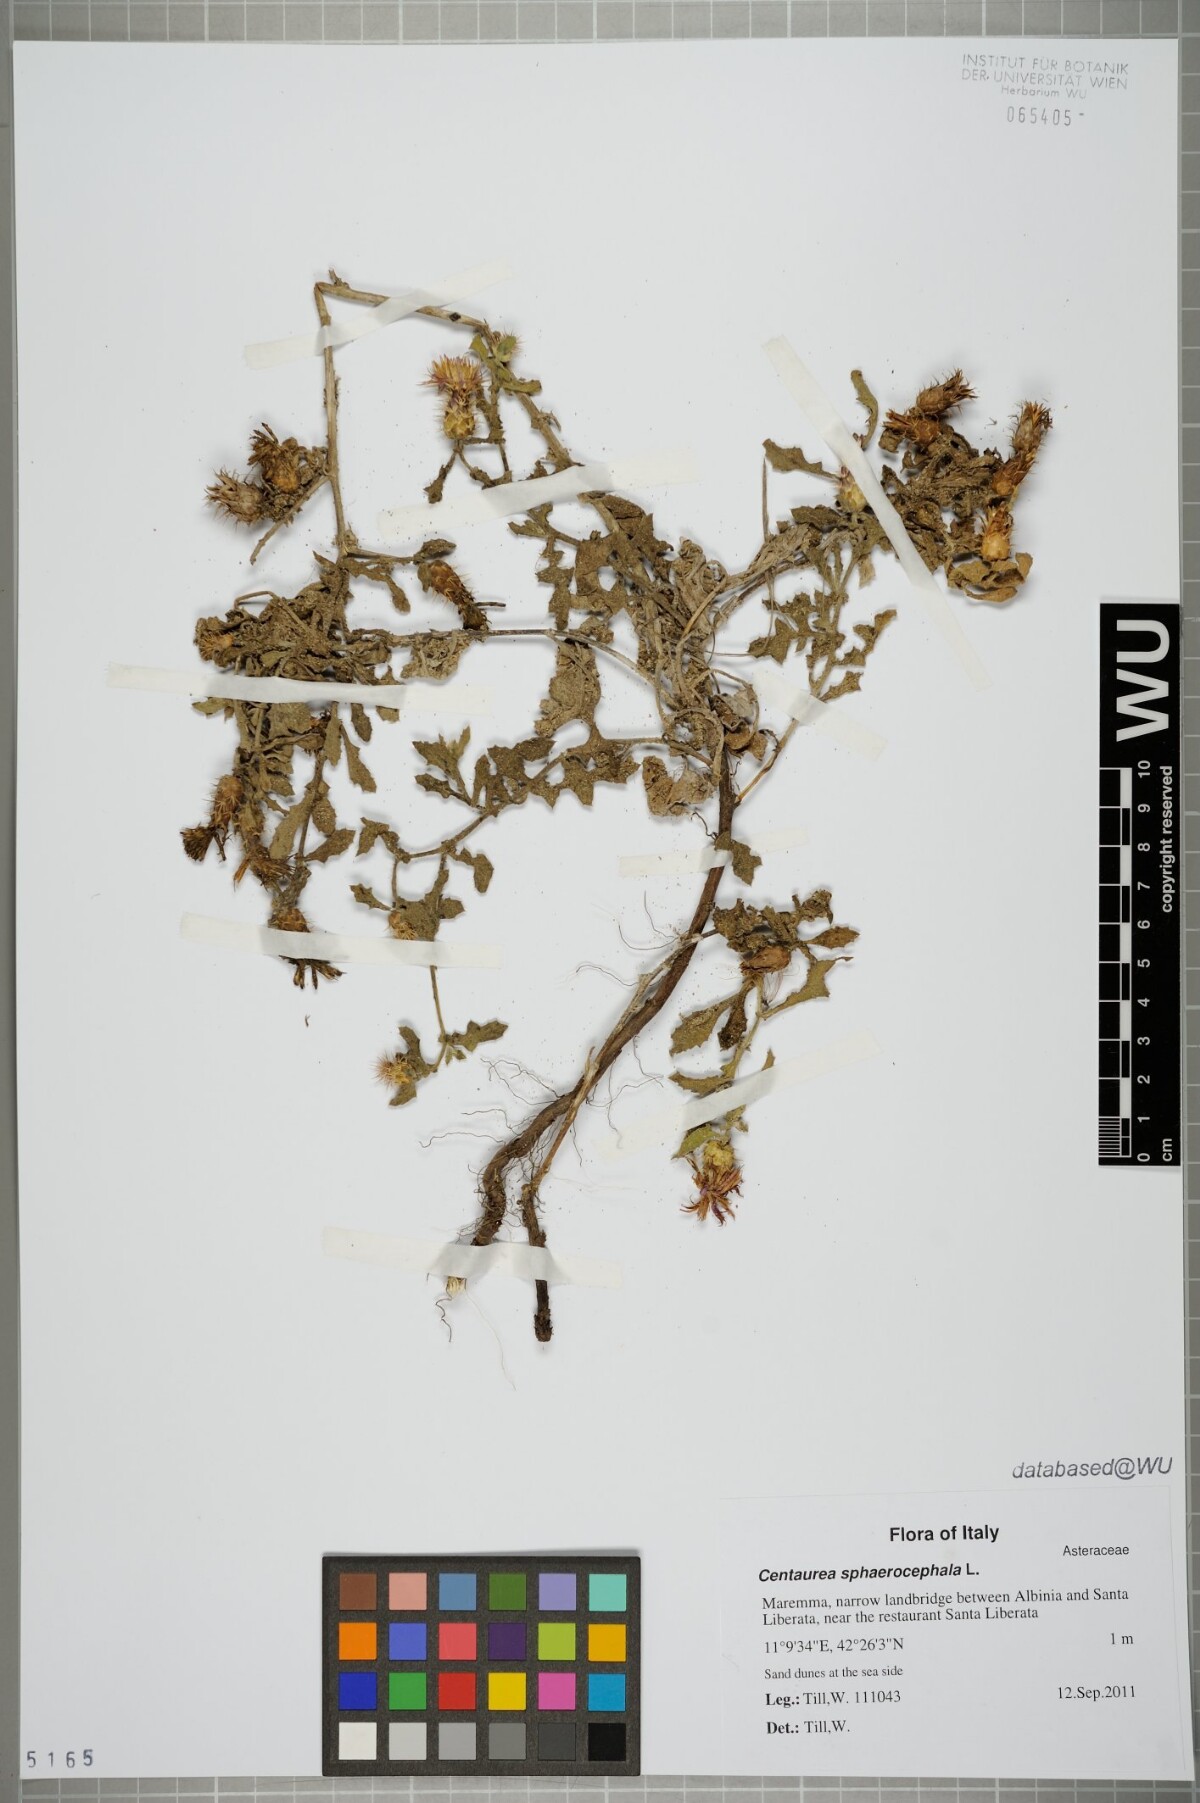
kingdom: Plantae
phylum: Tracheophyta
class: Magnoliopsida
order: Asterales
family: Asteraceae
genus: Centaurea
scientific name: Centaurea sphaerocephala
